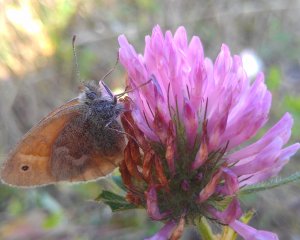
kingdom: Animalia
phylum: Arthropoda
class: Insecta
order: Lepidoptera
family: Nymphalidae
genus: Coenonympha
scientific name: Coenonympha tullia
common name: Large Heath
